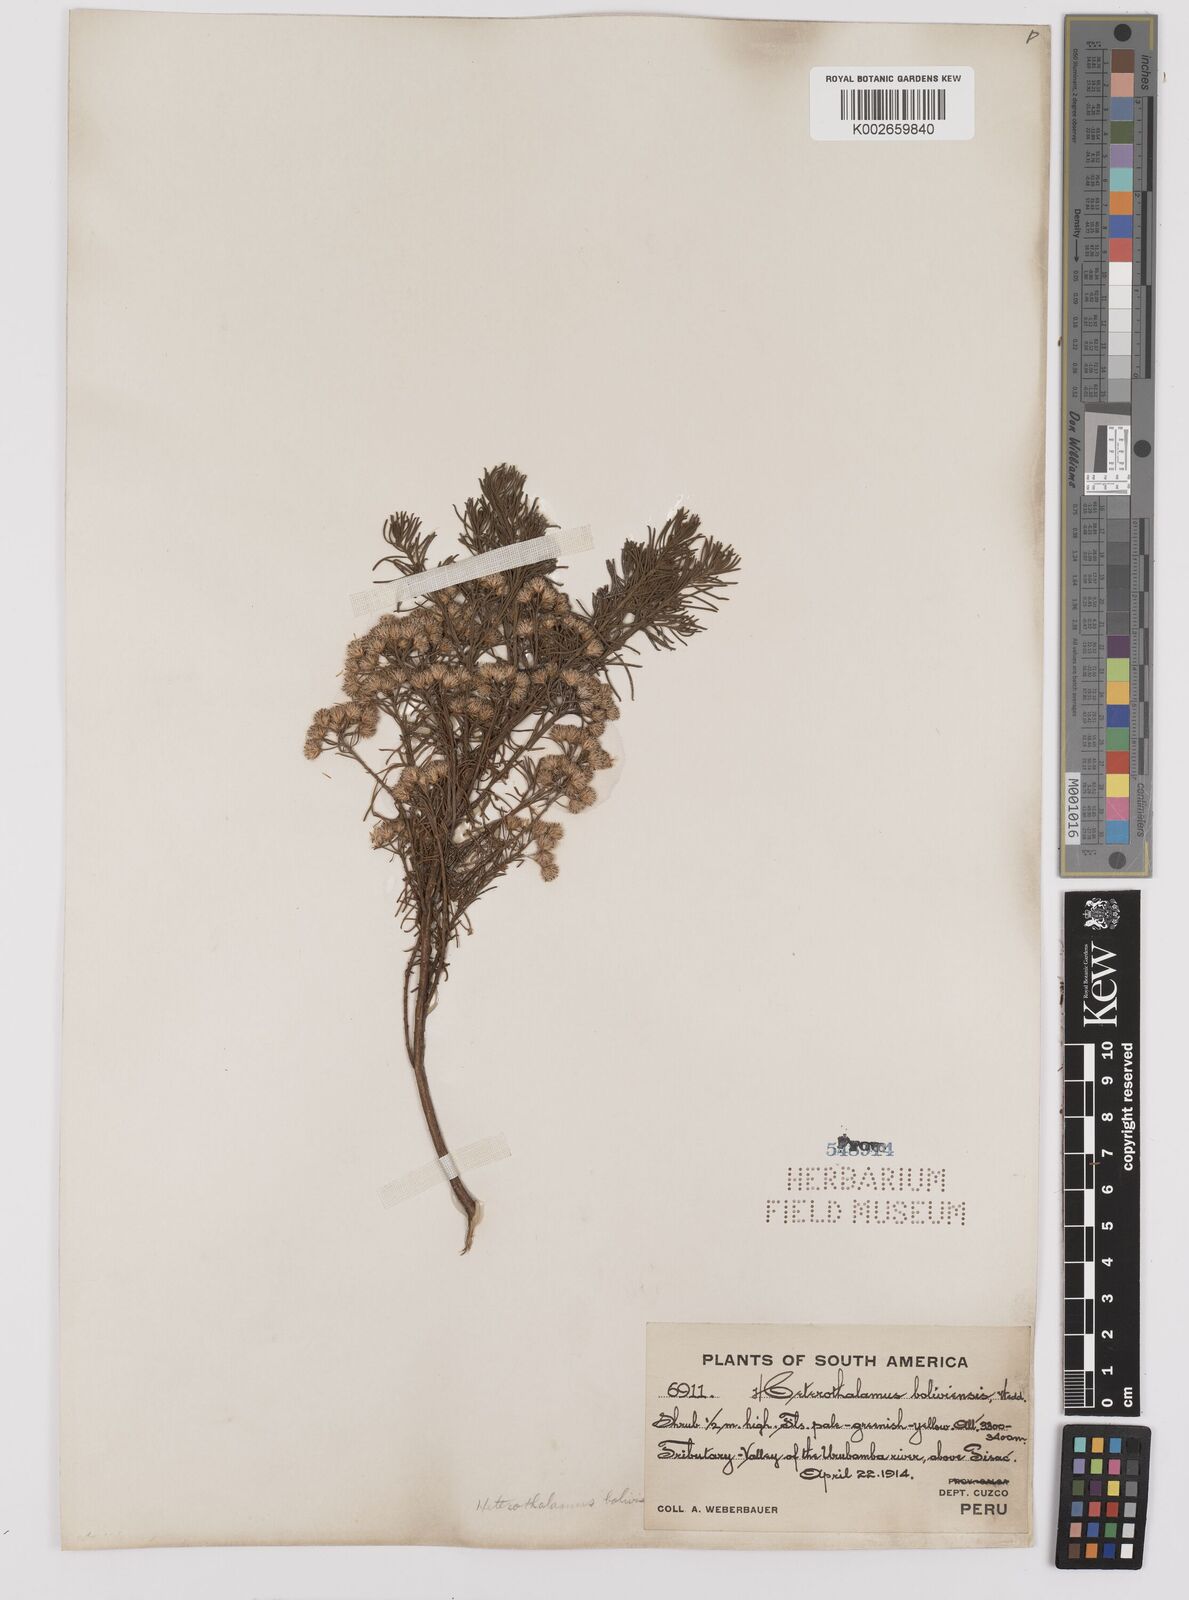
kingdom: Plantae
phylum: Tracheophyta
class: Magnoliopsida
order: Asterales
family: Asteraceae
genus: Baccharis
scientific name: Baccharis bolivensis
